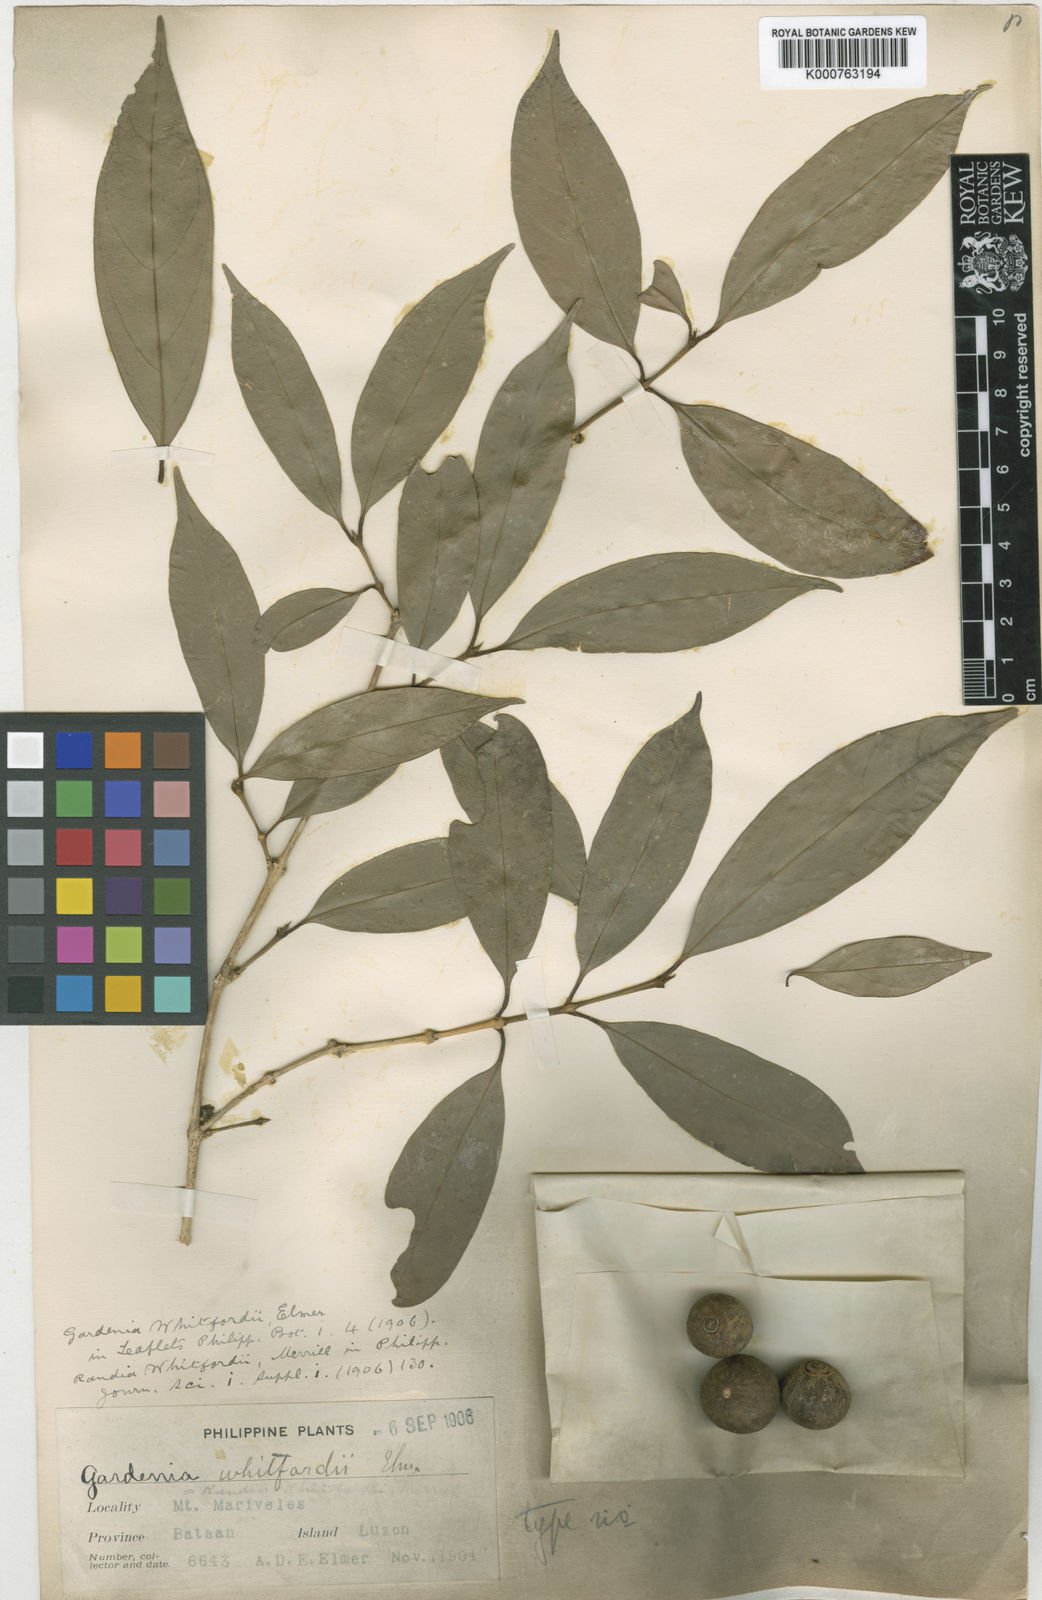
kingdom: Plantae
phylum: Tracheophyta
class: Magnoliopsida
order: Gentianales
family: Rubiaceae
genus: Discospermum
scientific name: Discospermum whitfordii
